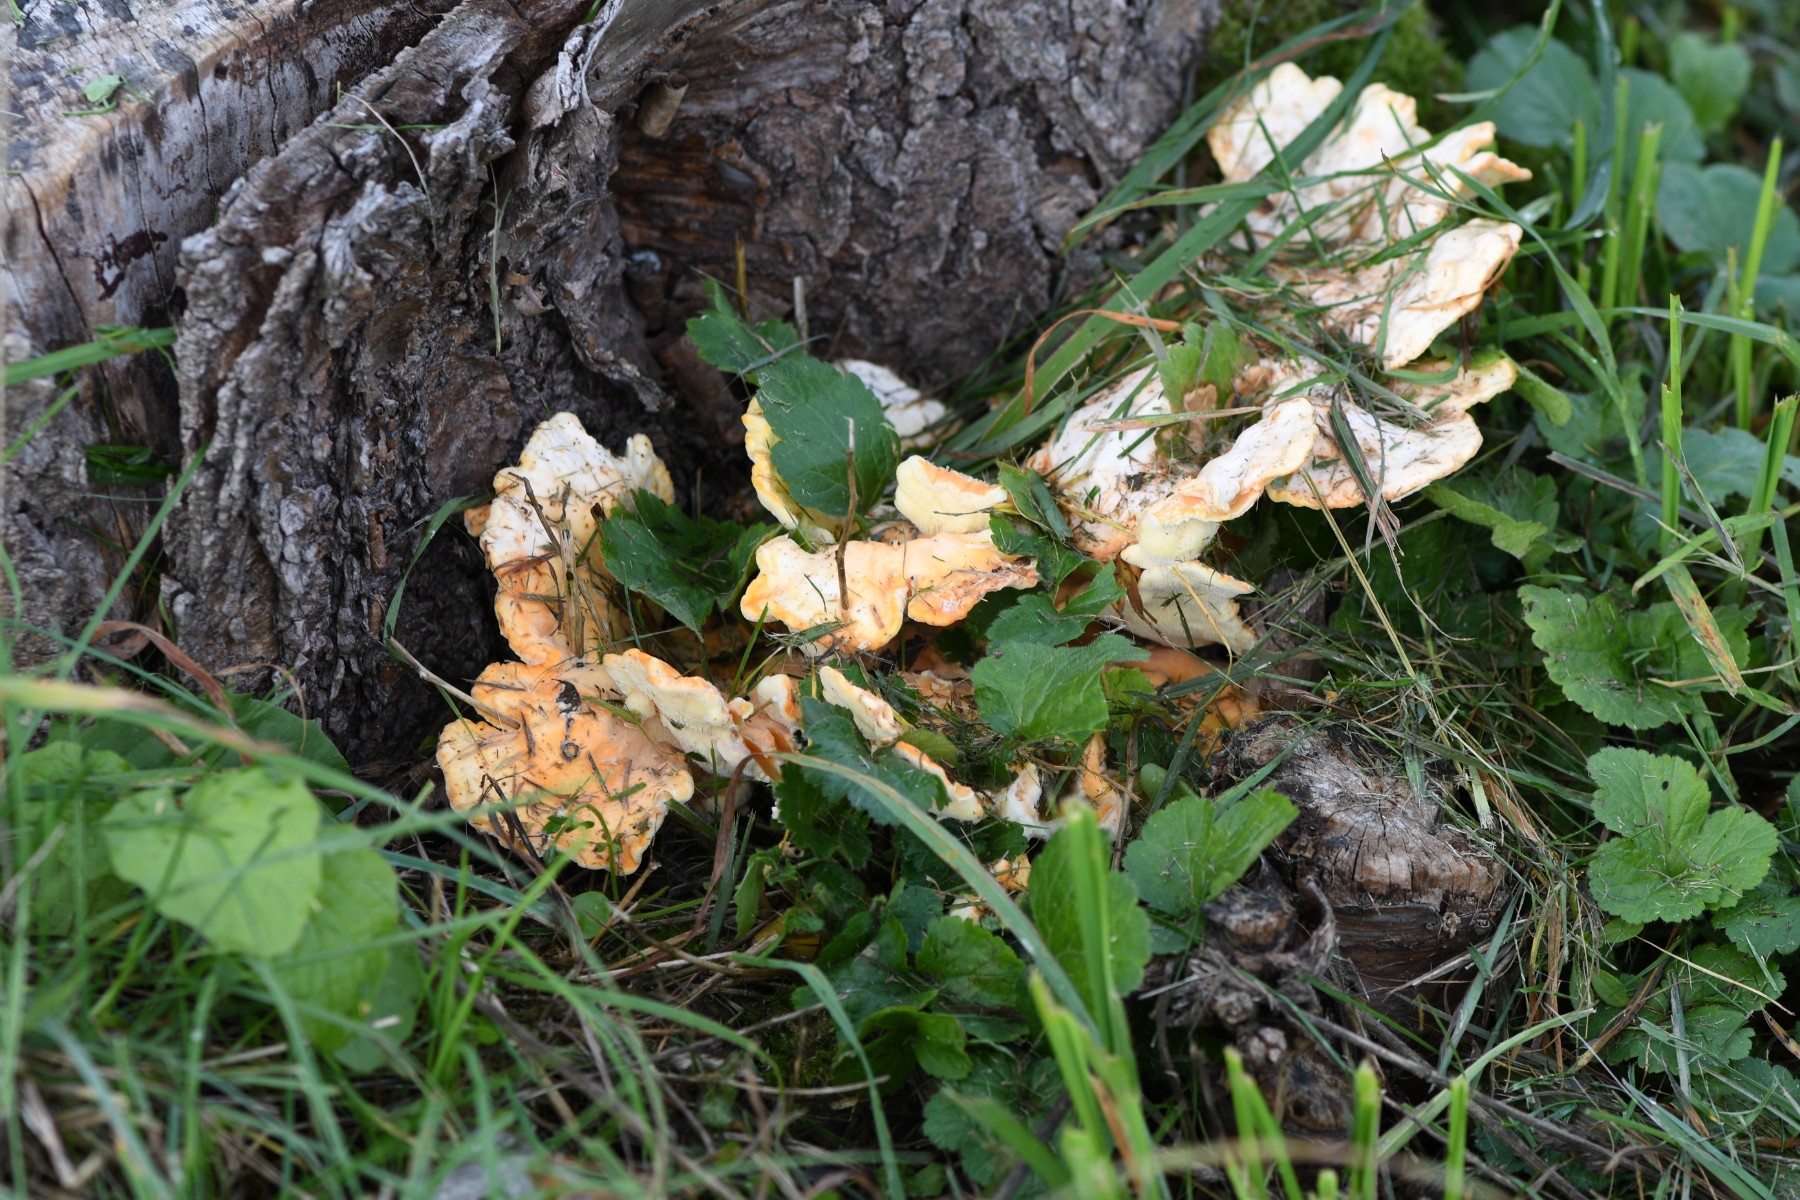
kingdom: Fungi
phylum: Basidiomycota
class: Agaricomycetes
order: Polyporales
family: Laetiporaceae
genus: Laetiporus
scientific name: Laetiporus sulphureus
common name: svovlporesvamp
